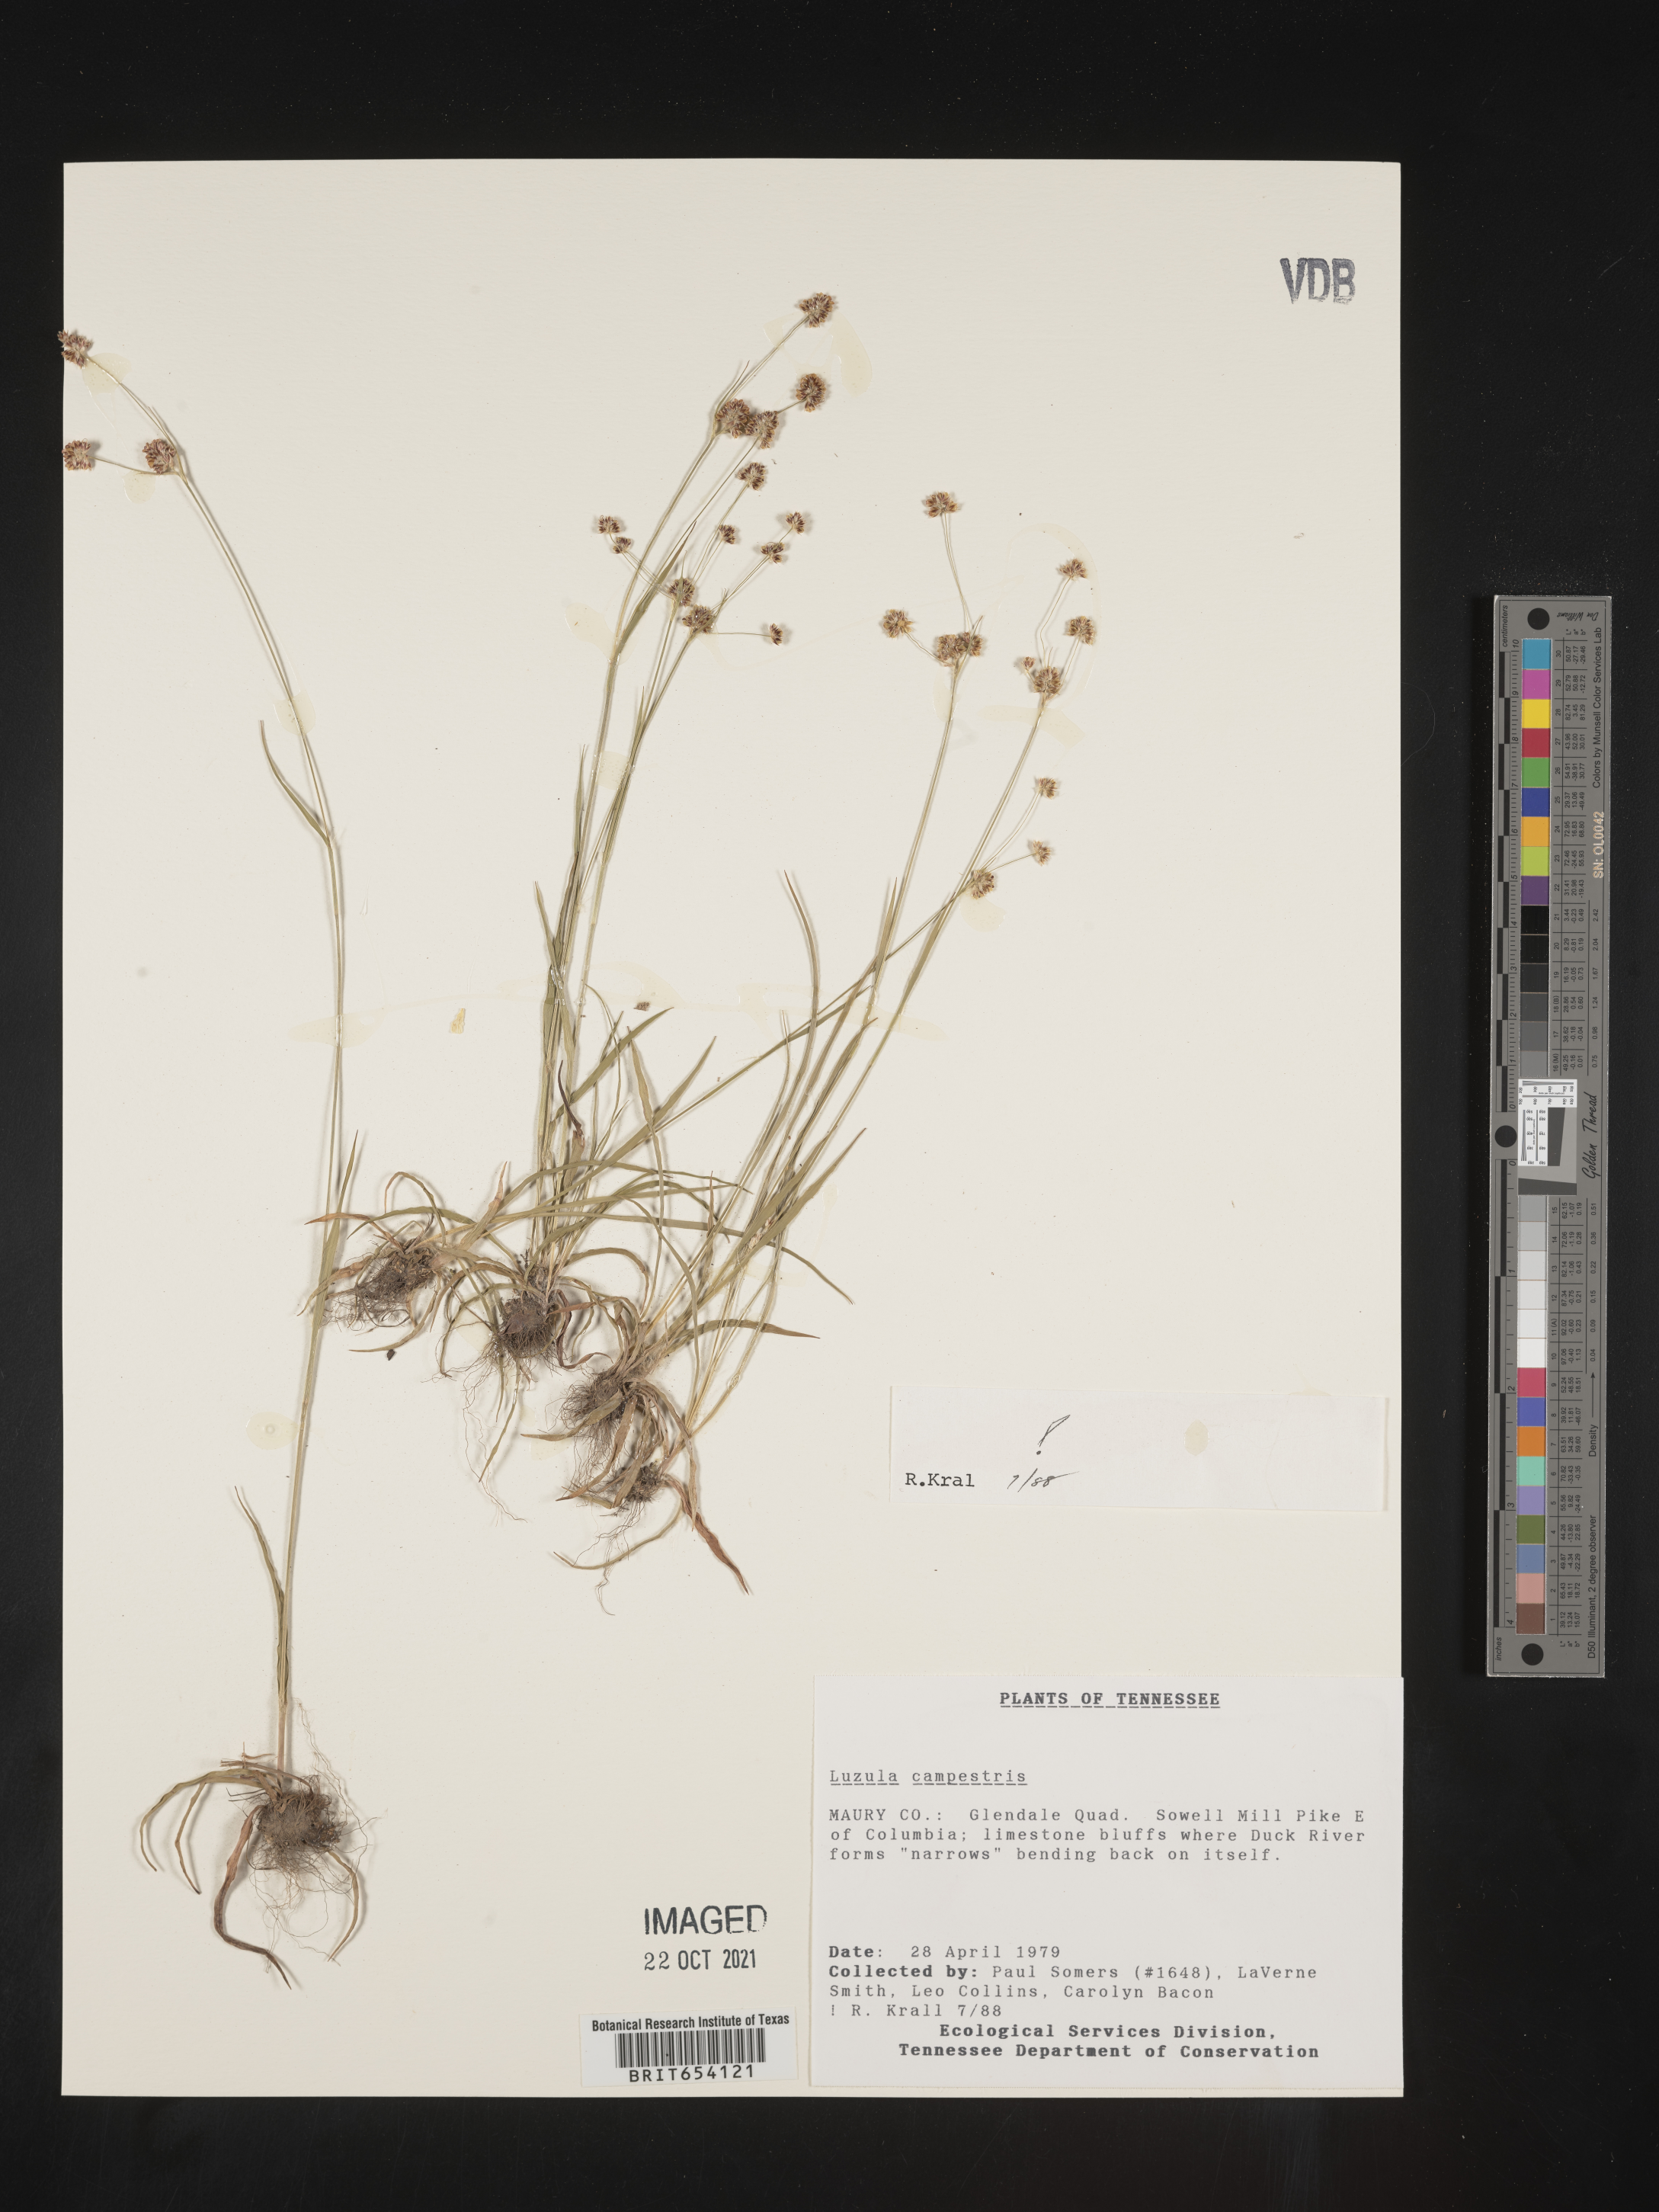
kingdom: Plantae
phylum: Tracheophyta
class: Liliopsida
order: Poales
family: Juncaceae
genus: Luzula
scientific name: Luzula
